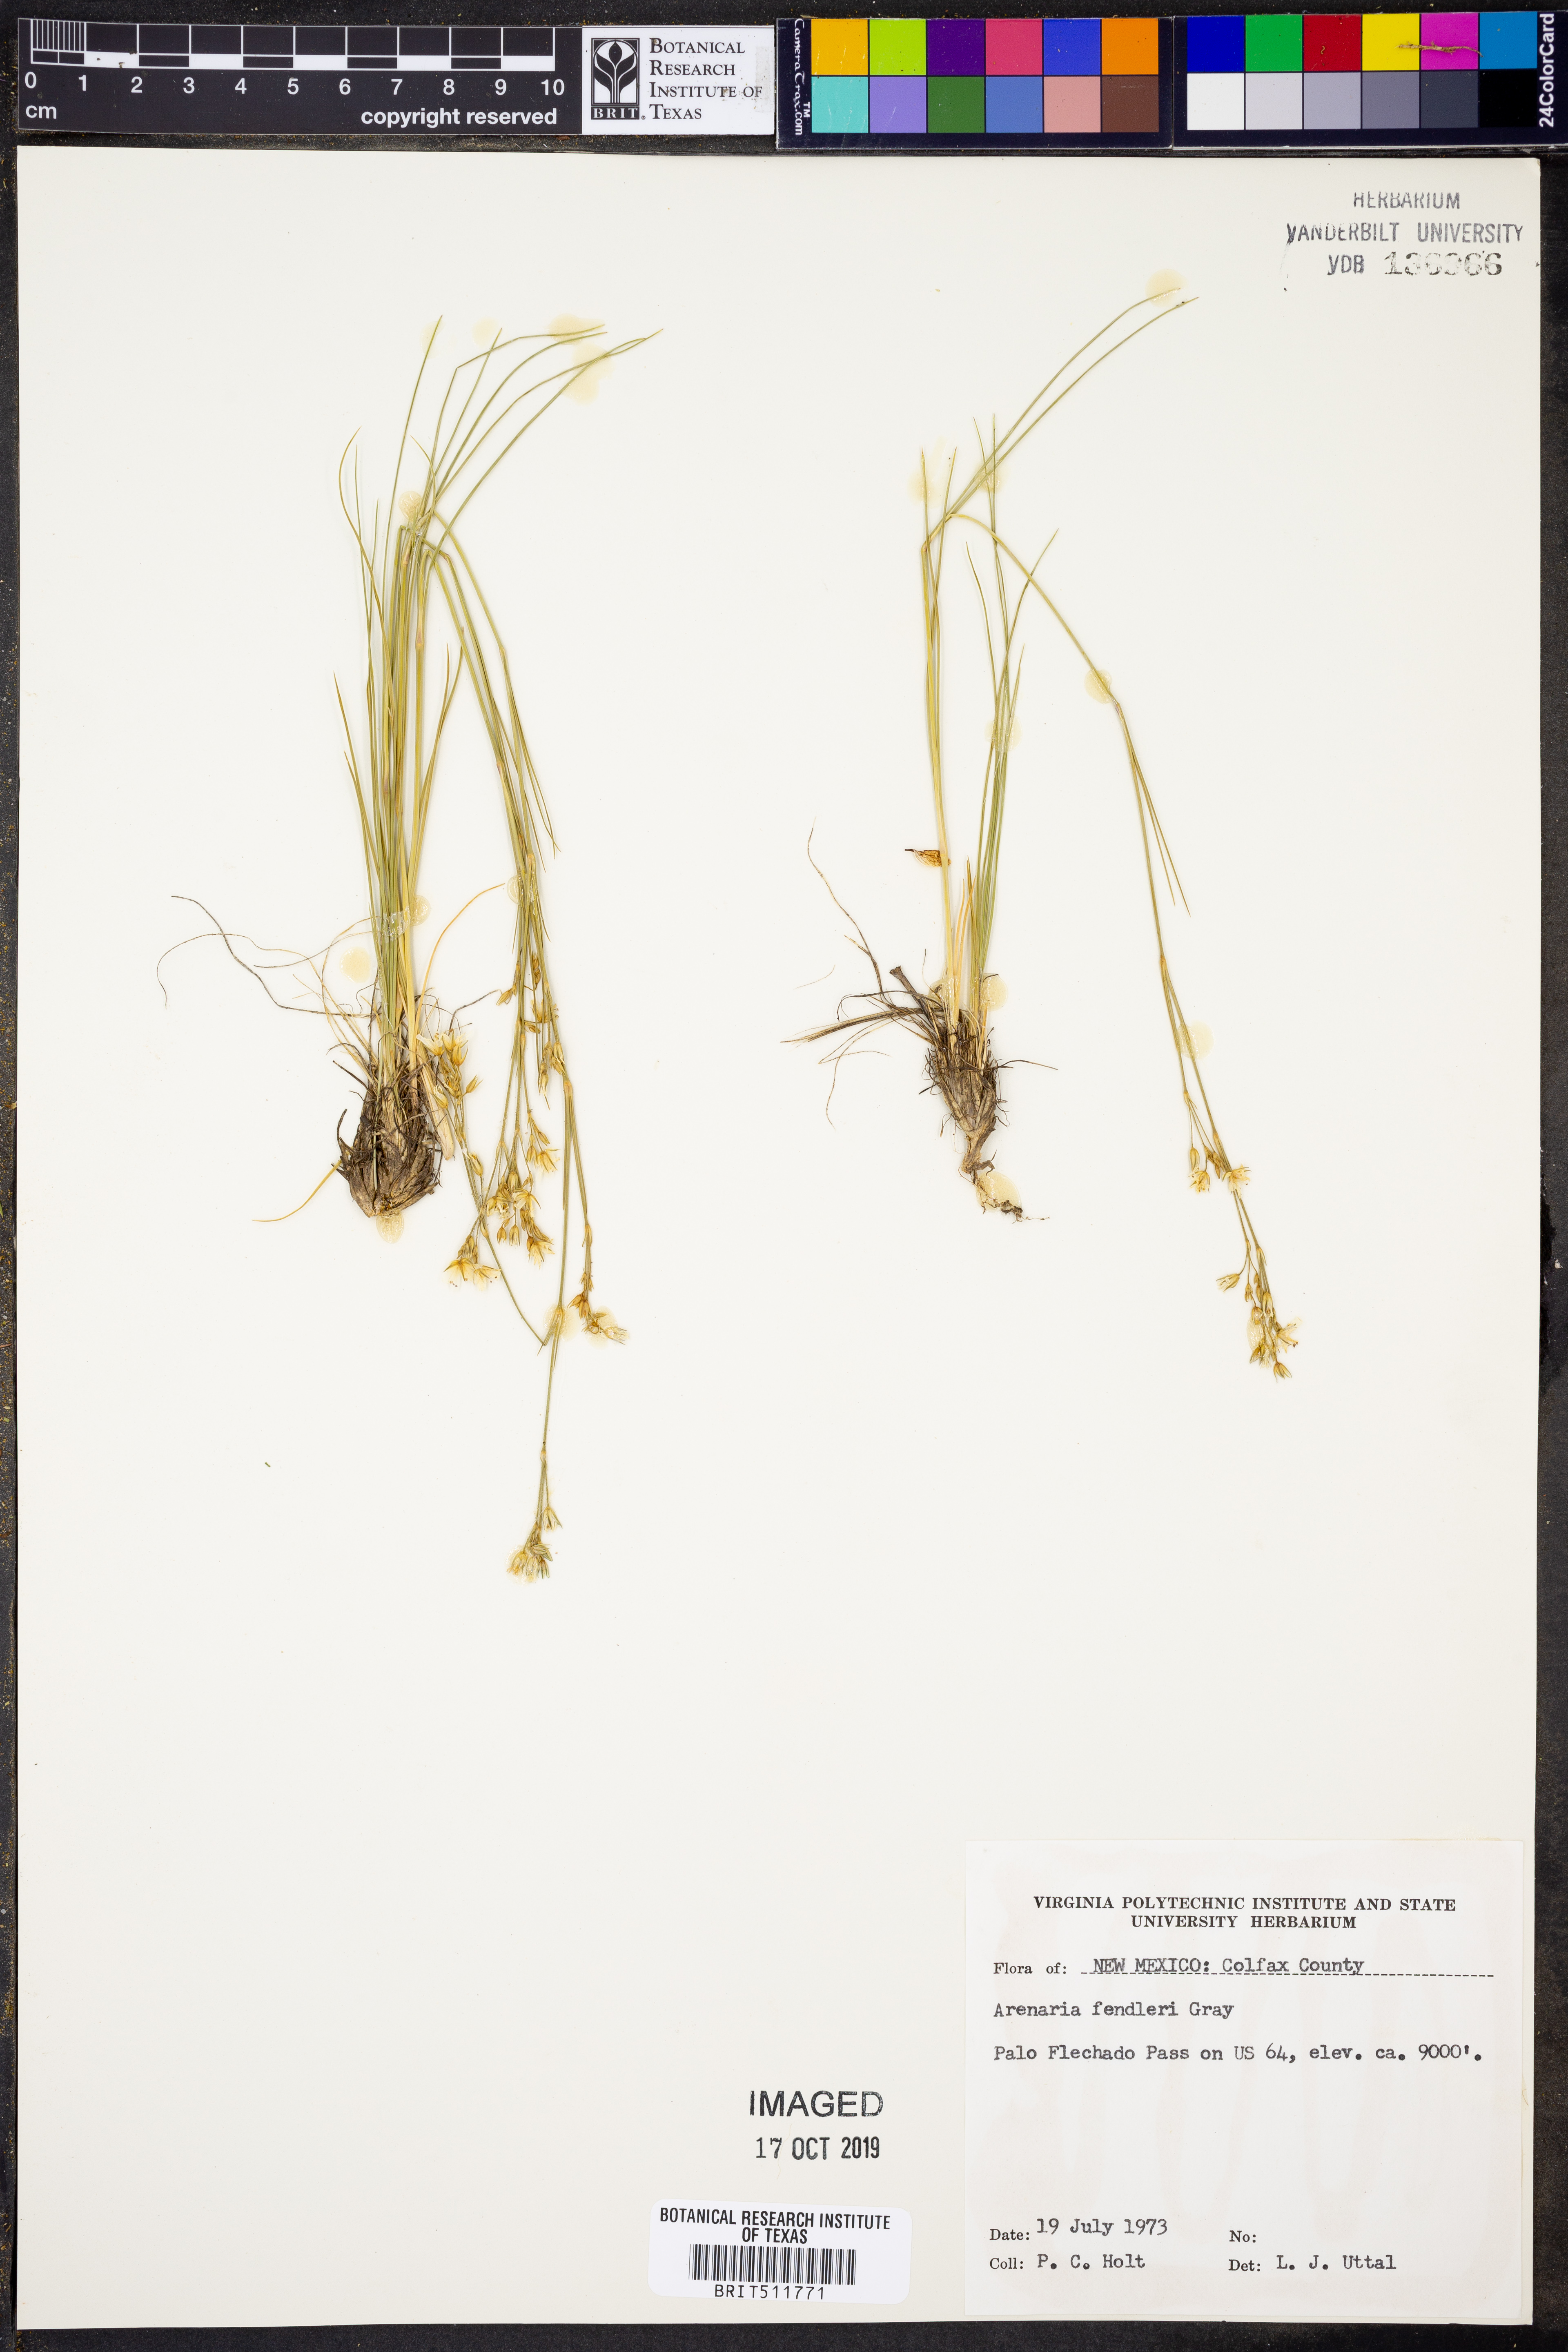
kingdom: Plantae
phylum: Tracheophyta
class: Magnoliopsida
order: Caryophyllales
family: Caryophyllaceae
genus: Eremogone
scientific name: Eremogone fendleri
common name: Fendler's sandwort
